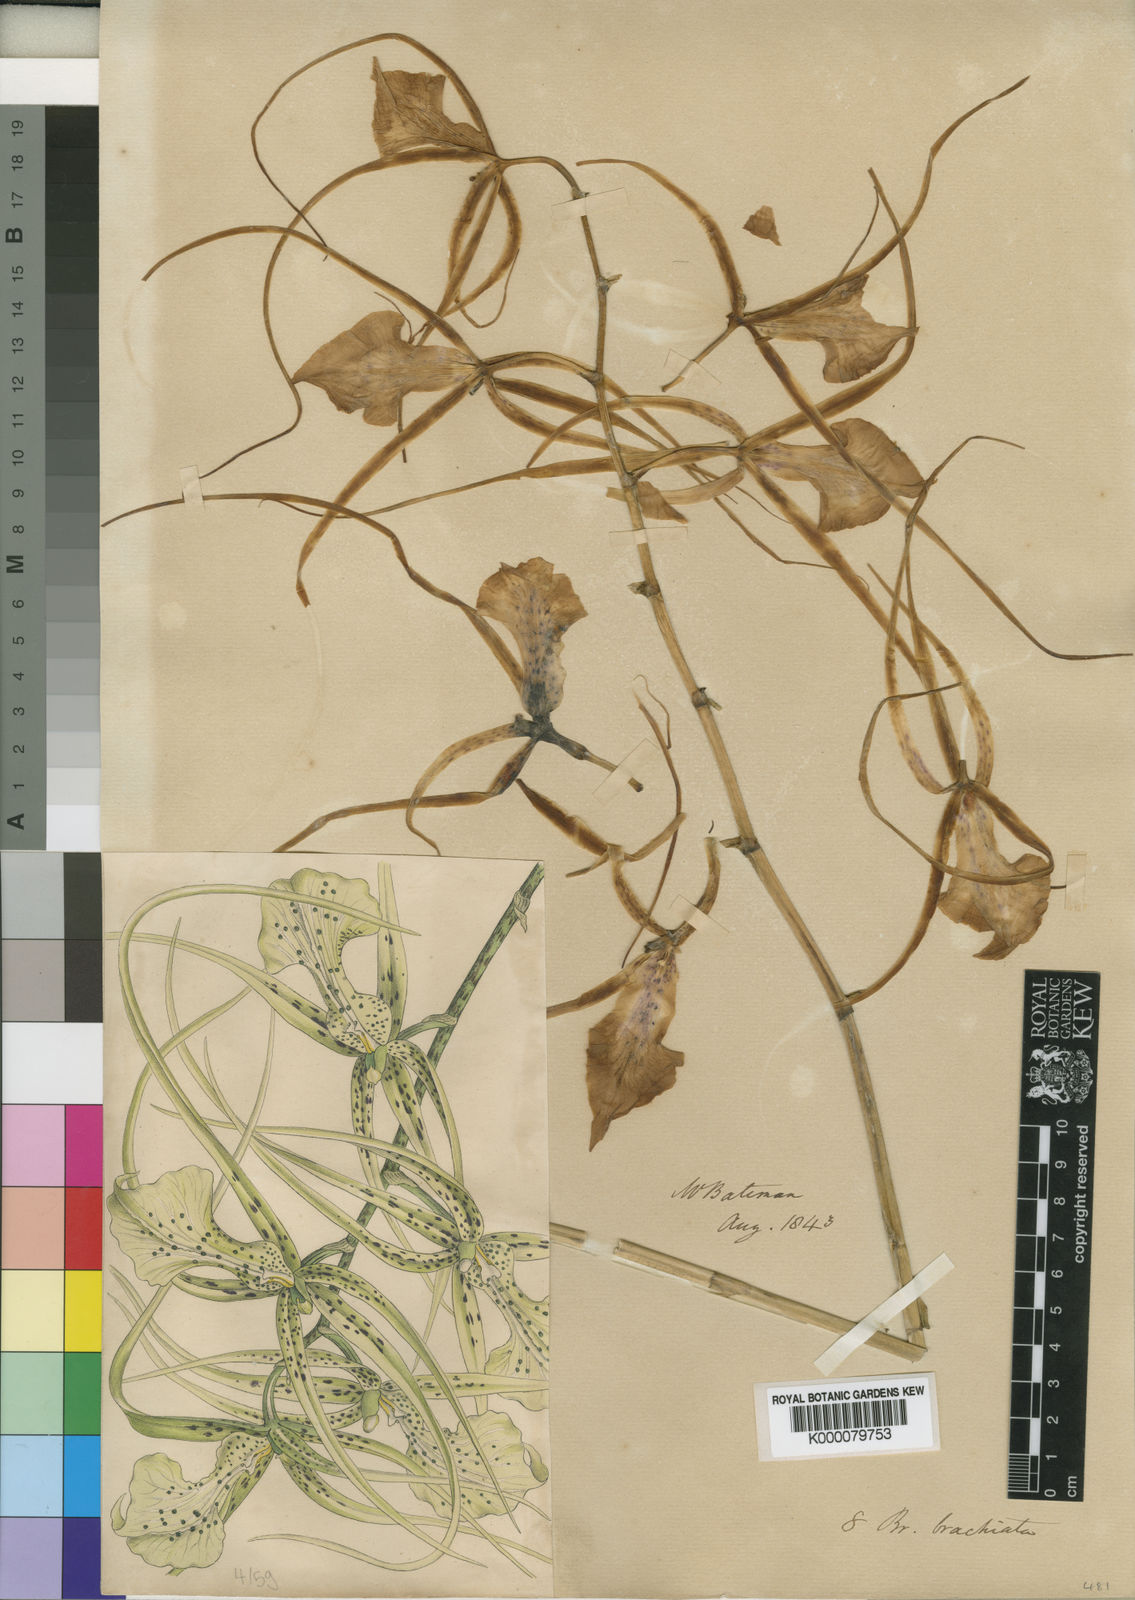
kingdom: Plantae
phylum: Tracheophyta
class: Liliopsida
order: Asparagales
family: Orchidaceae
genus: Brassia
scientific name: Brassia verrucosa
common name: Warty brassia
